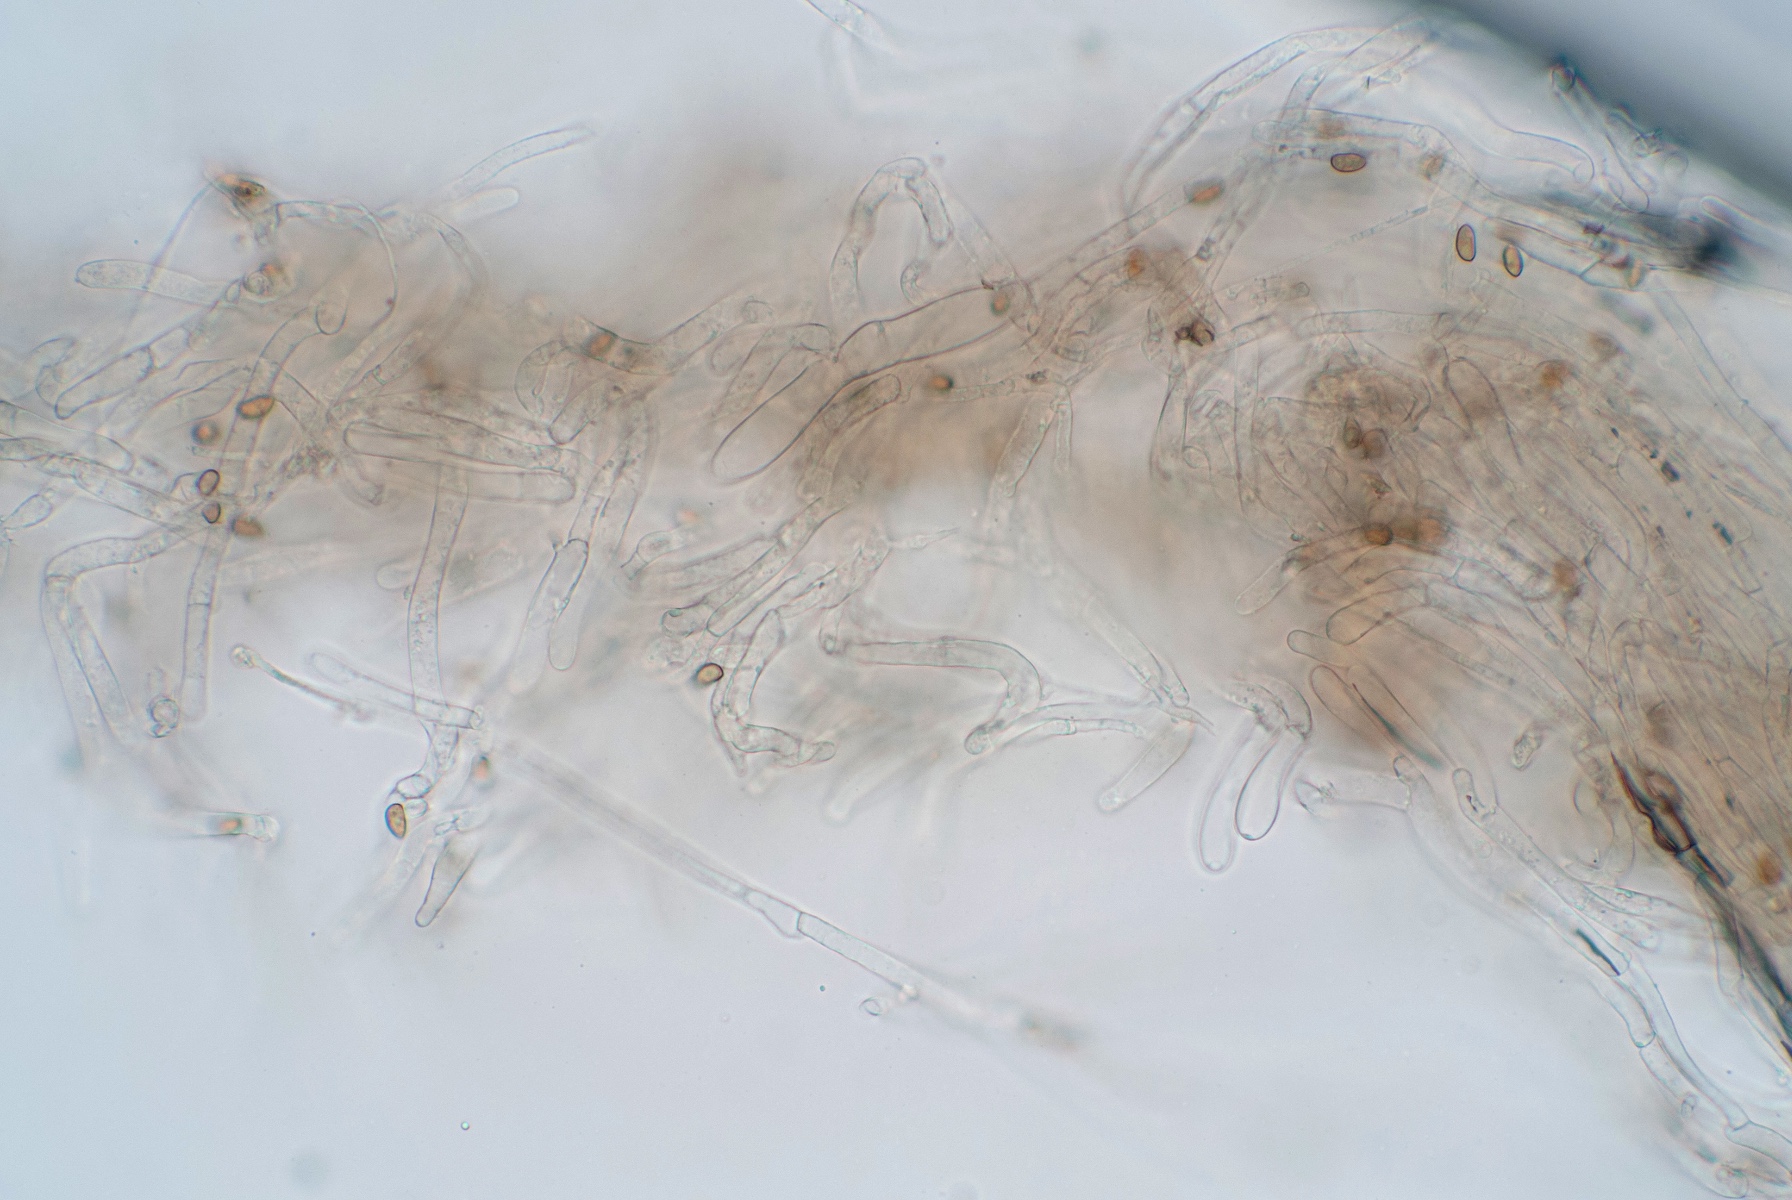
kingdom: Fungi
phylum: Basidiomycota
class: Agaricomycetes
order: Agaricales
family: Inocybaceae
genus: Inocybe
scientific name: Inocybe pseudorubens
